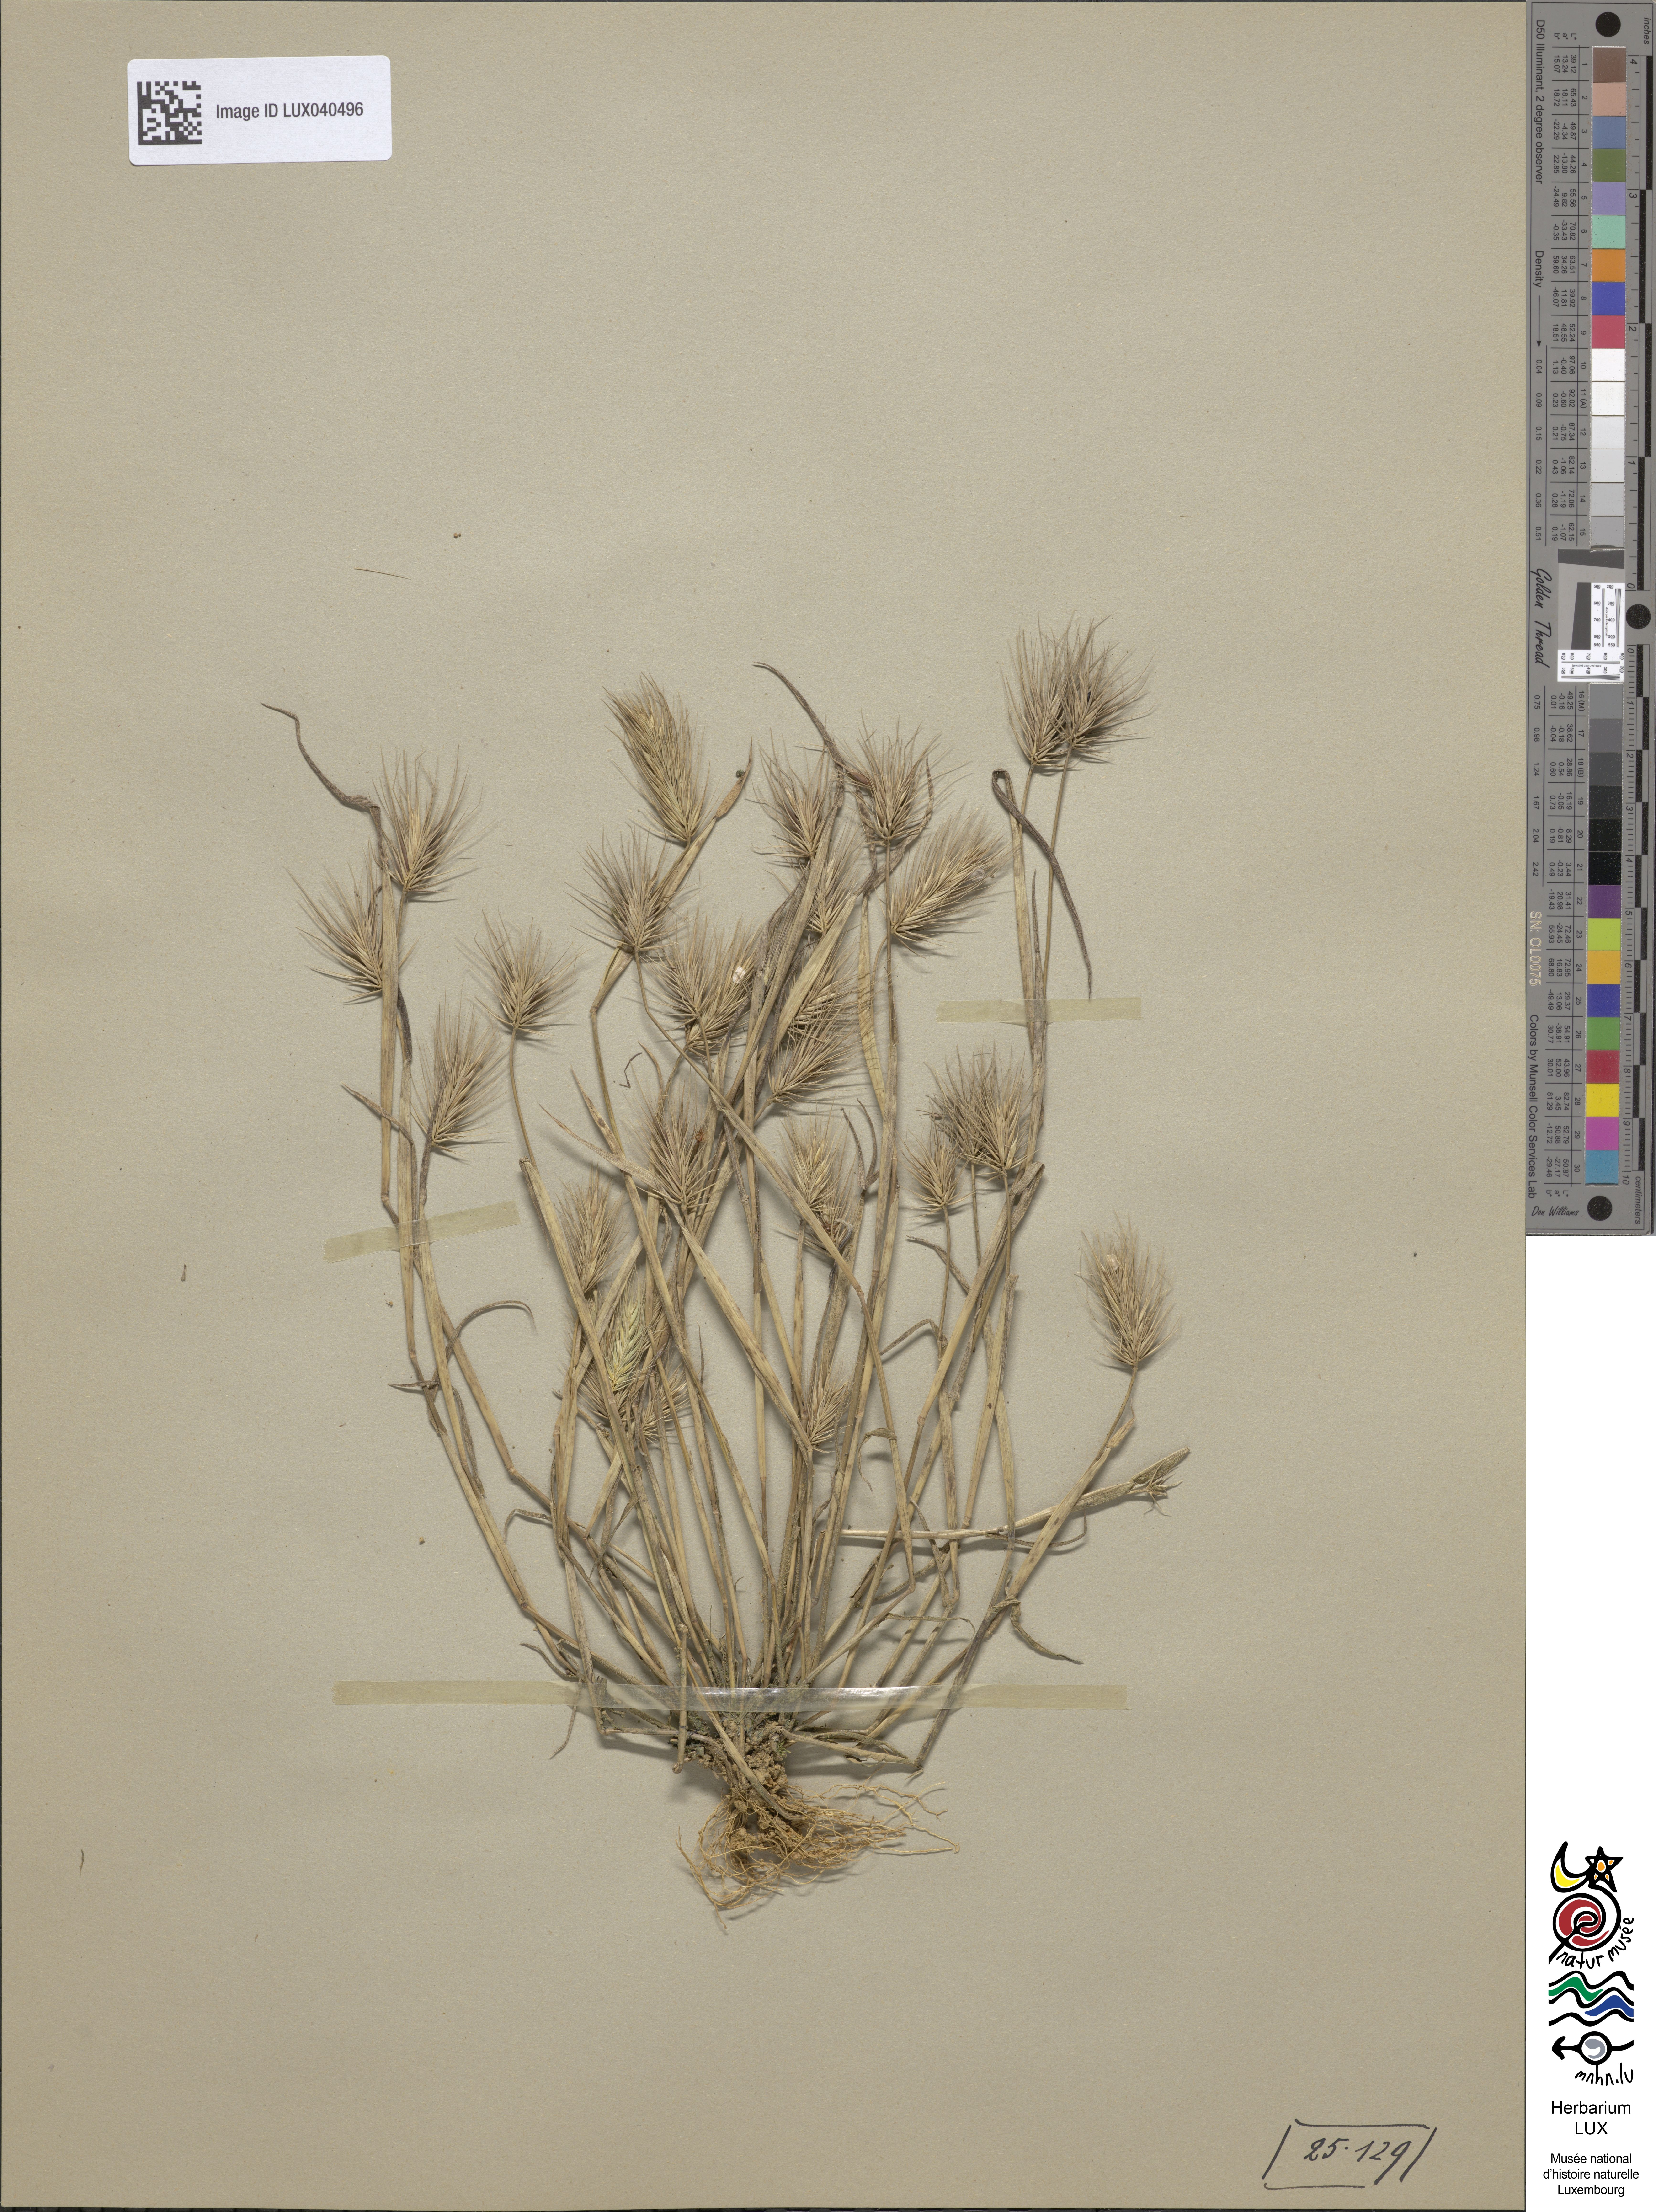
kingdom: Plantae
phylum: Tracheophyta
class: Liliopsida
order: Poales
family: Poaceae
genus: Hordeum
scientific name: Hordeum marinum
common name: Sea barley
